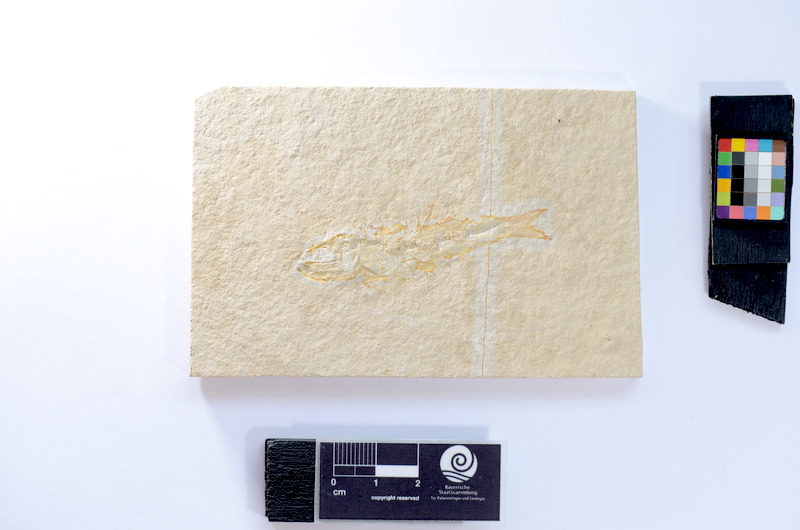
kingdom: Animalia
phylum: Chordata
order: Salmoniformes
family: Orthogonikleithridae
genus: Leptolepides
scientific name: Leptolepides
